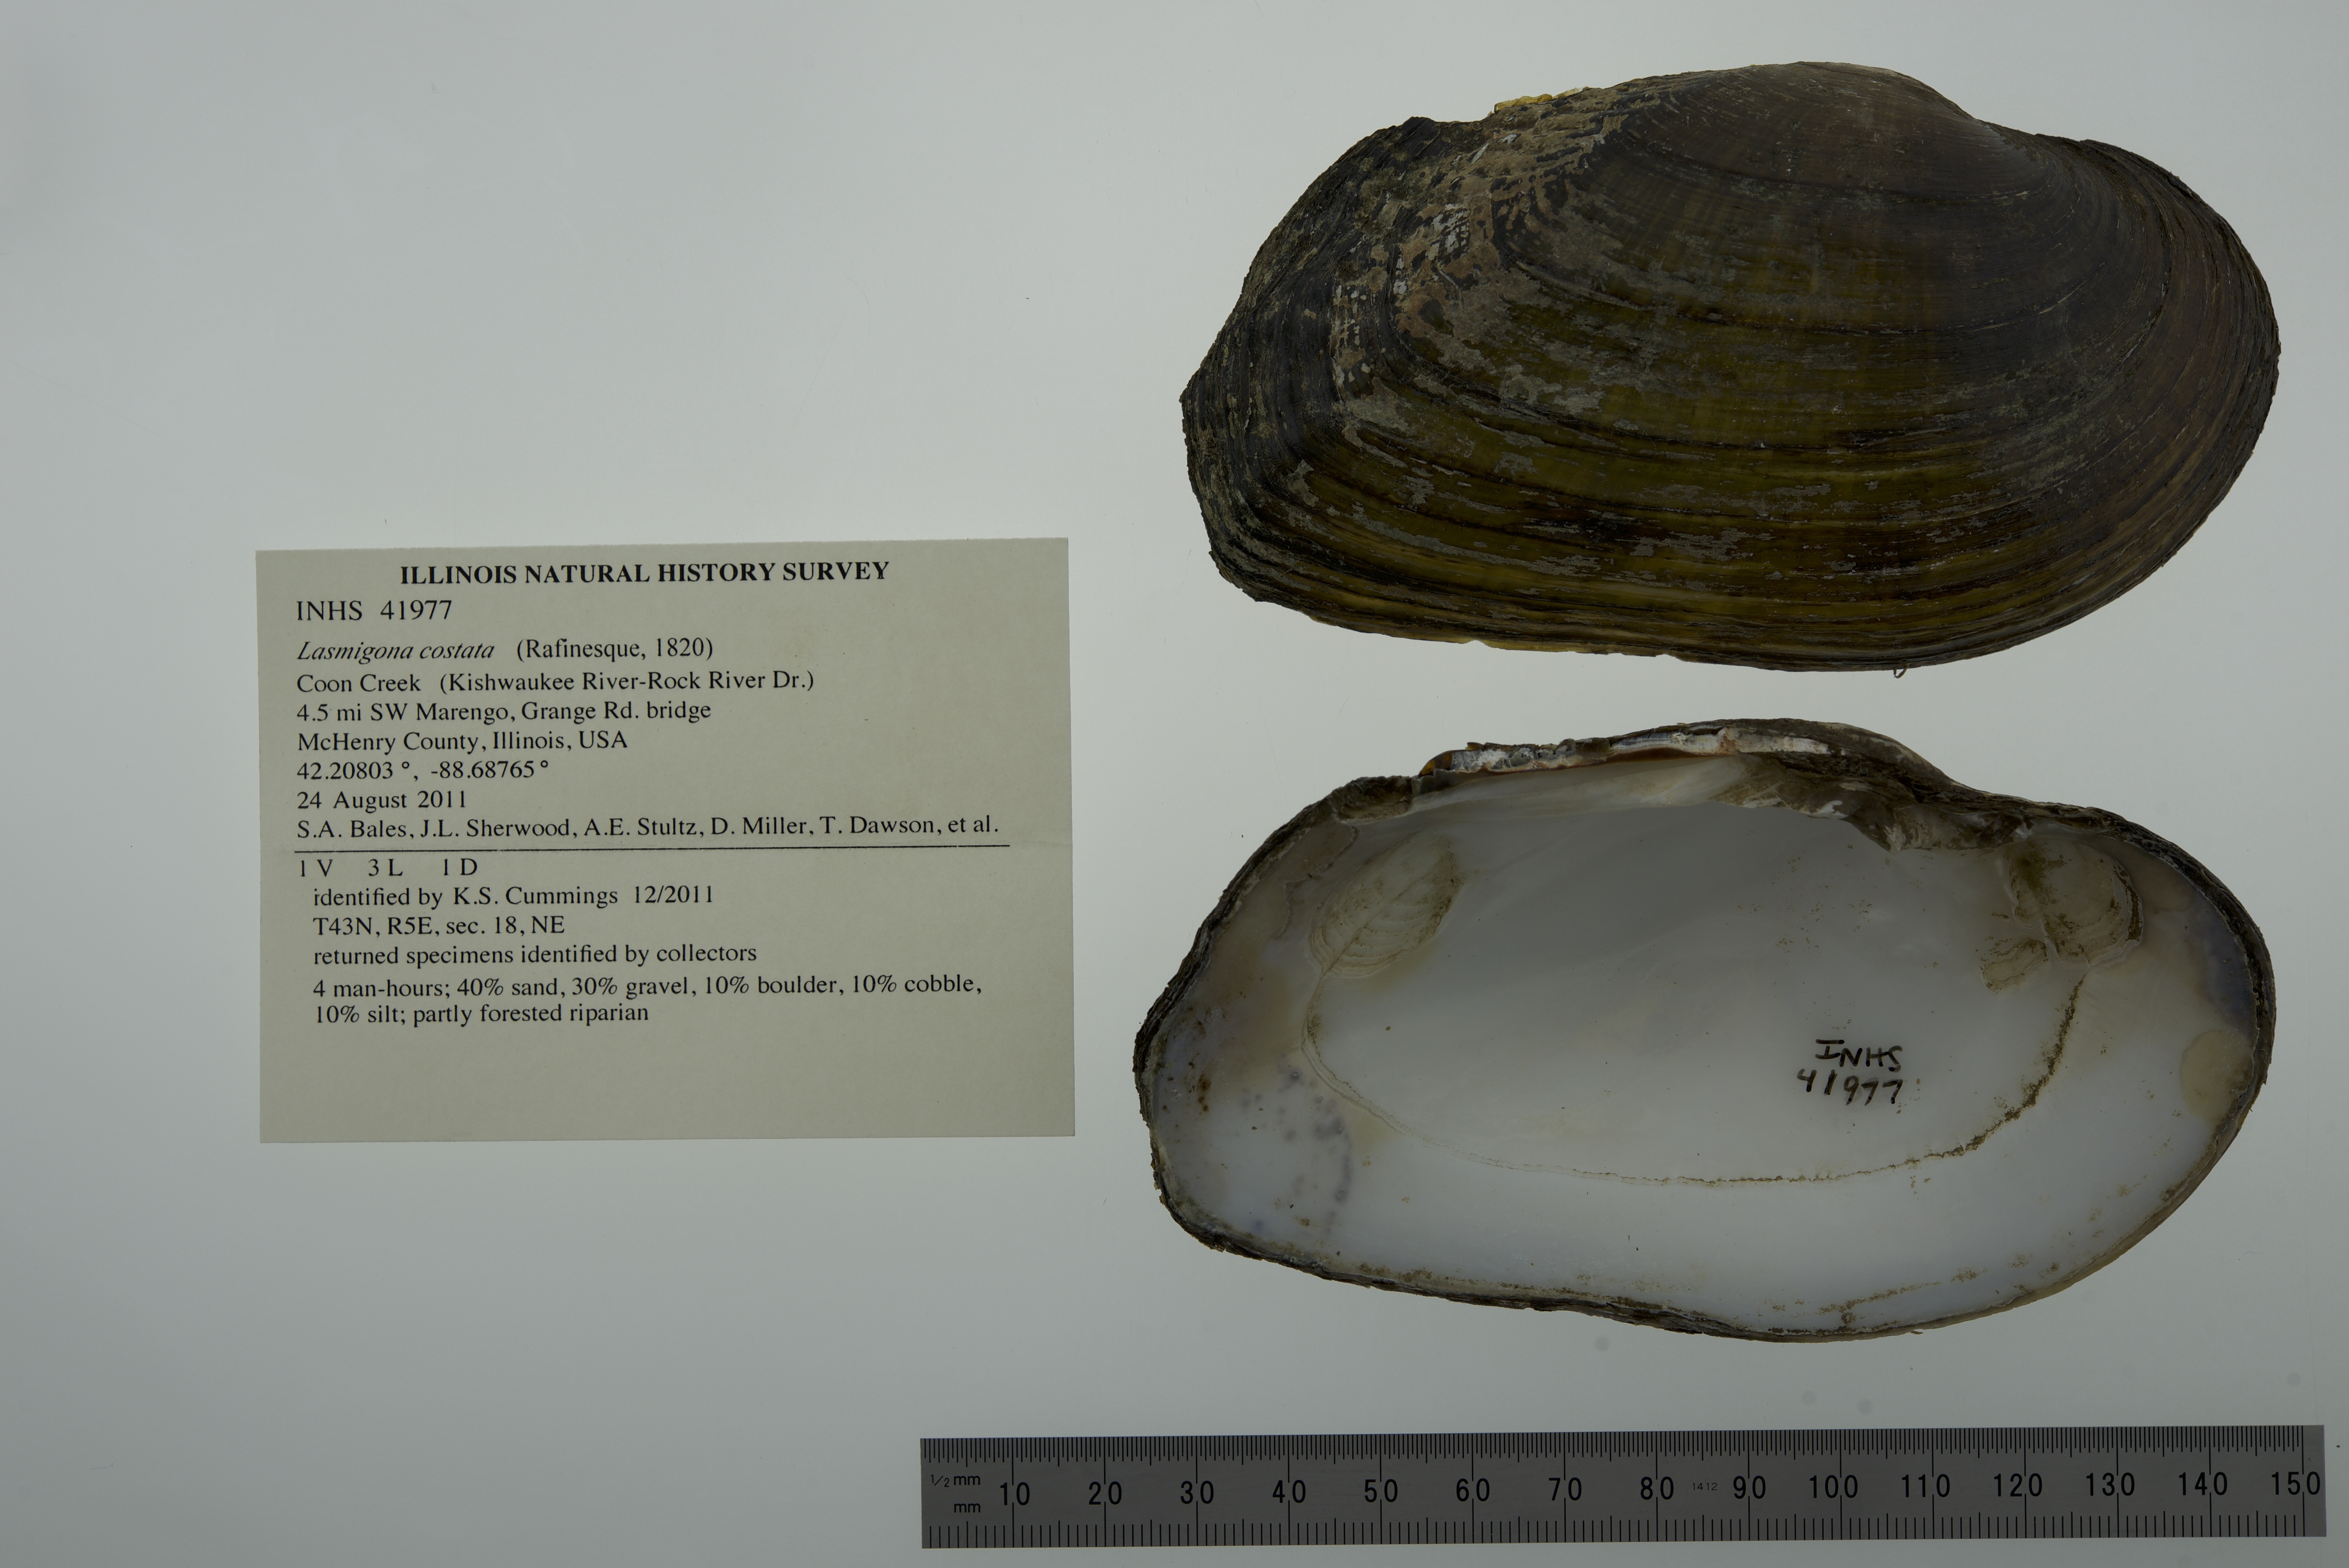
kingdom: Animalia
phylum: Mollusca
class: Bivalvia
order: Unionida
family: Unionidae
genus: Lasmigona
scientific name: Lasmigona costata
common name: Flutedshell
